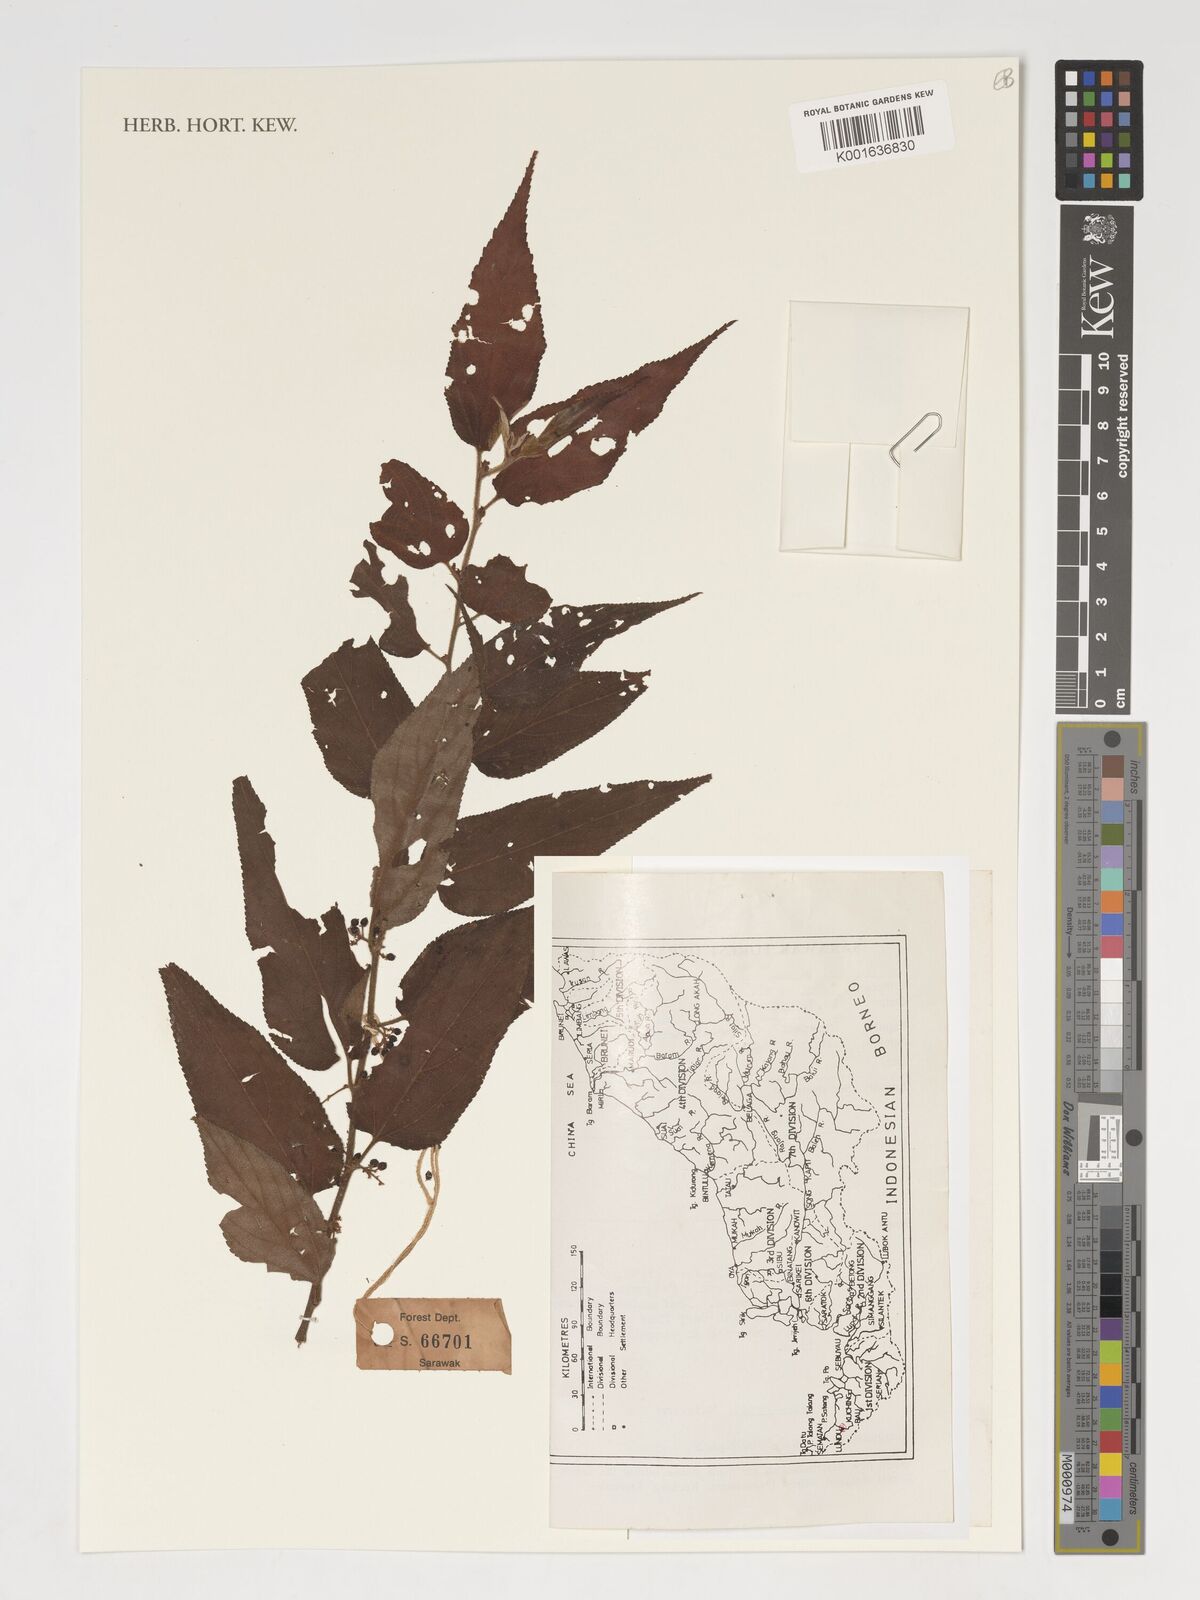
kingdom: Plantae
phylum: Tracheophyta
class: Magnoliopsida
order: Rosales
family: Cannabaceae
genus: Trema
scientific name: Trema tomentosum
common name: Peach-leaf-poisonbush
